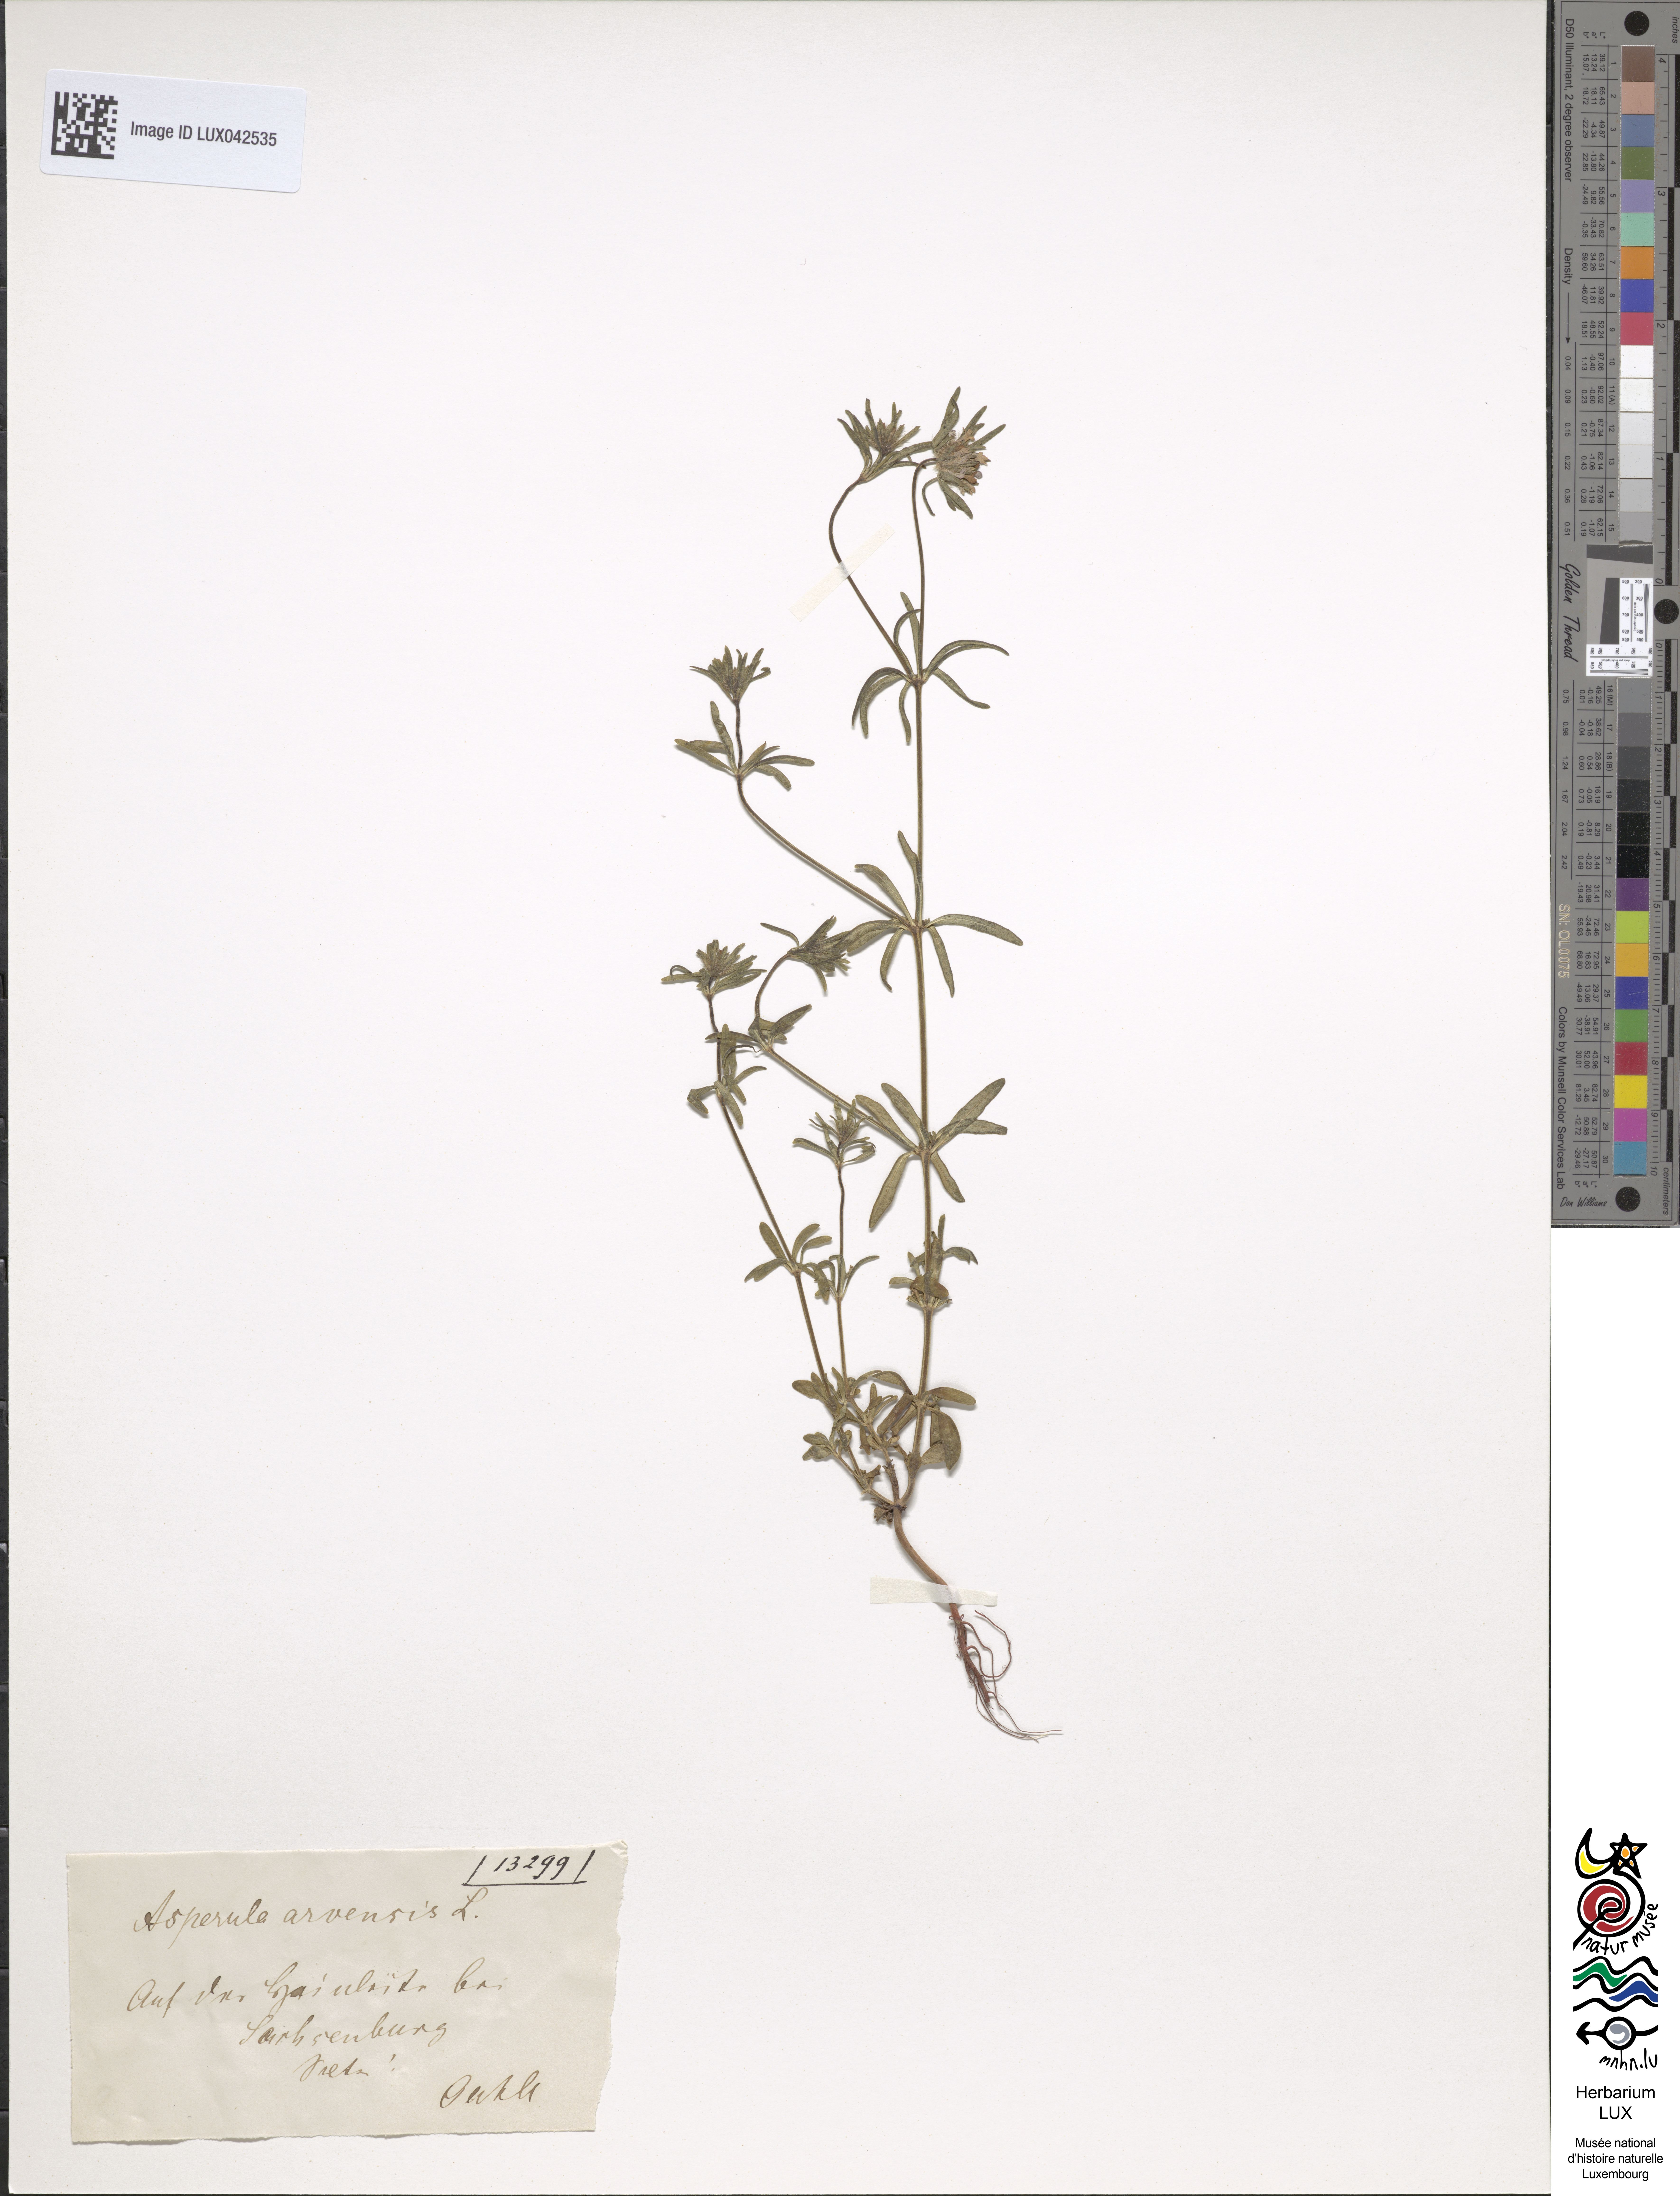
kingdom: Plantae
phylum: Tracheophyta
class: Magnoliopsida
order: Gentianales
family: Rubiaceae
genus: Asperula
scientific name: Asperula arvensis
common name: Blue woodruff
